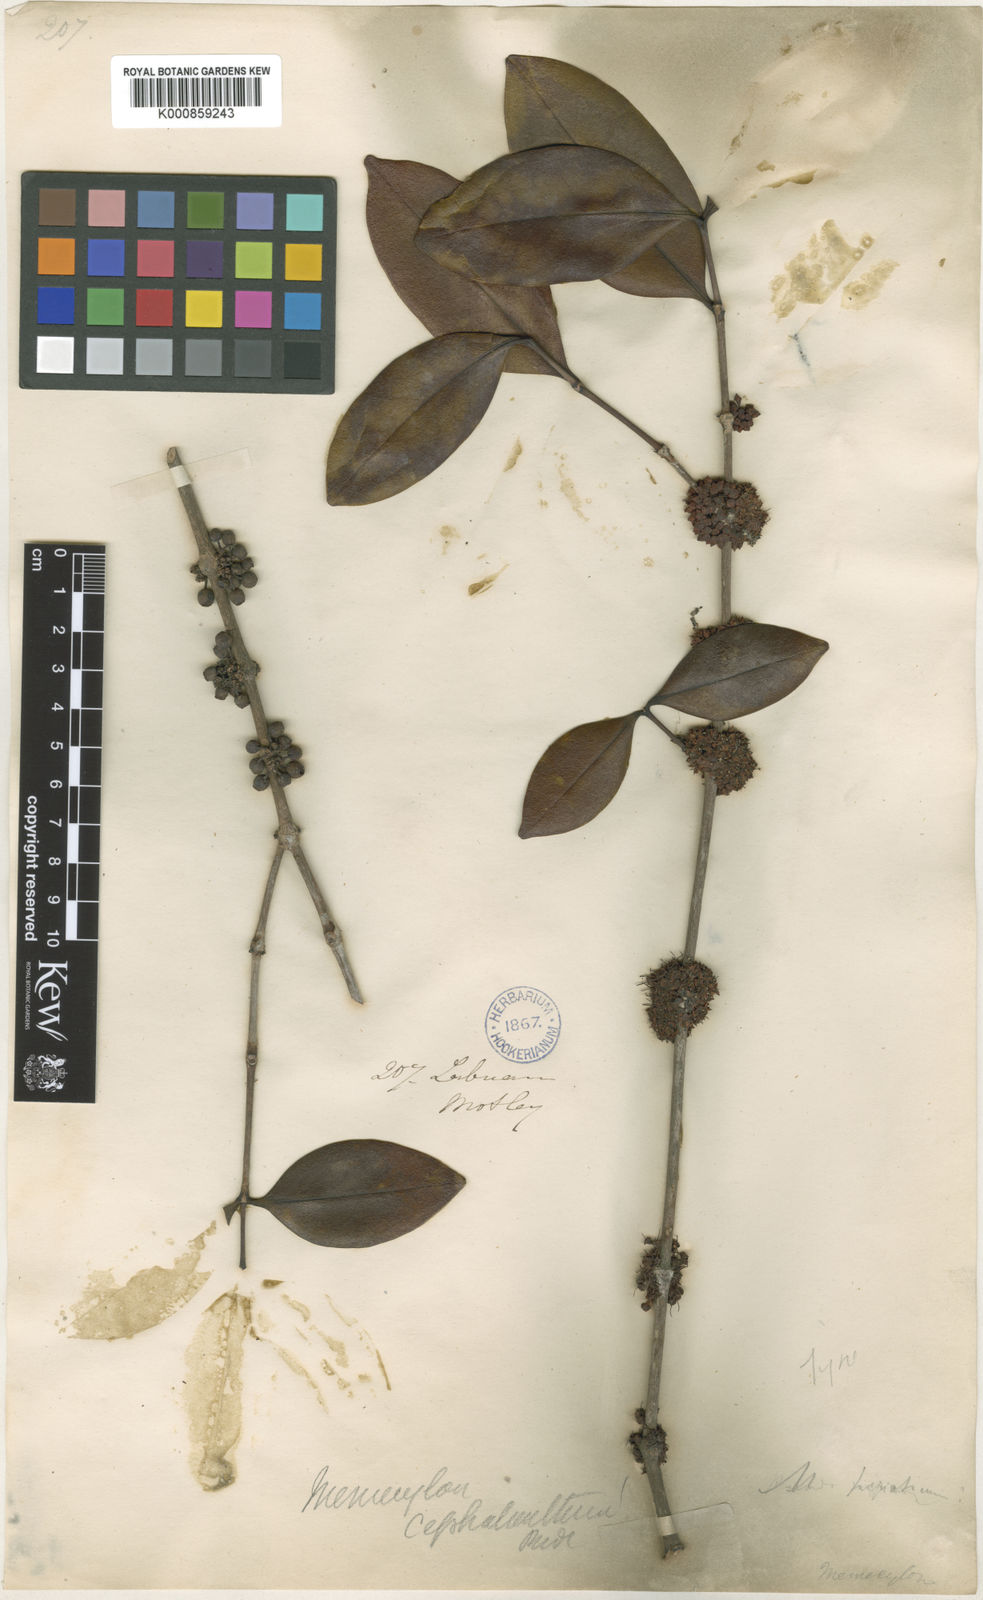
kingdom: Plantae
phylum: Tracheophyta
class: Magnoliopsida
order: Myrtales
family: Melastomataceae
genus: Memecylon
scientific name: Memecylon campanulatum
